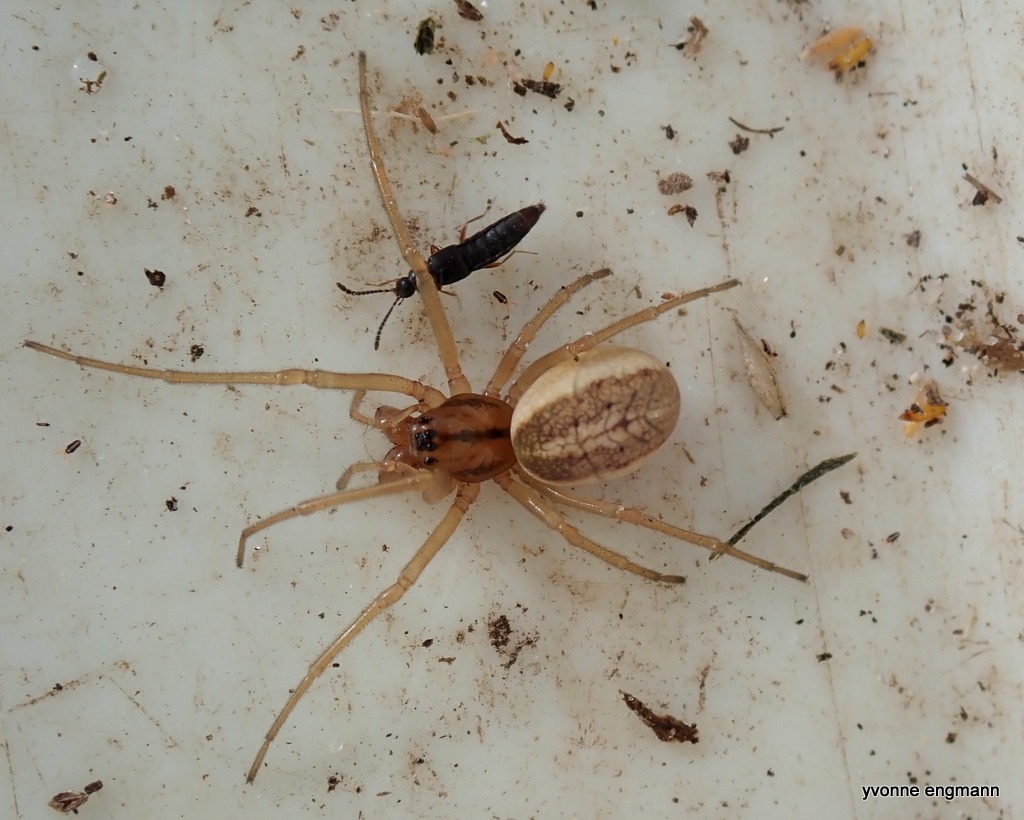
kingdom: Animalia
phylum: Arthropoda
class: Arachnida
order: Araneae
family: Tetragnathidae
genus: Pachygnatha
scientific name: Pachygnatha clercki
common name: Søtykkæbe
